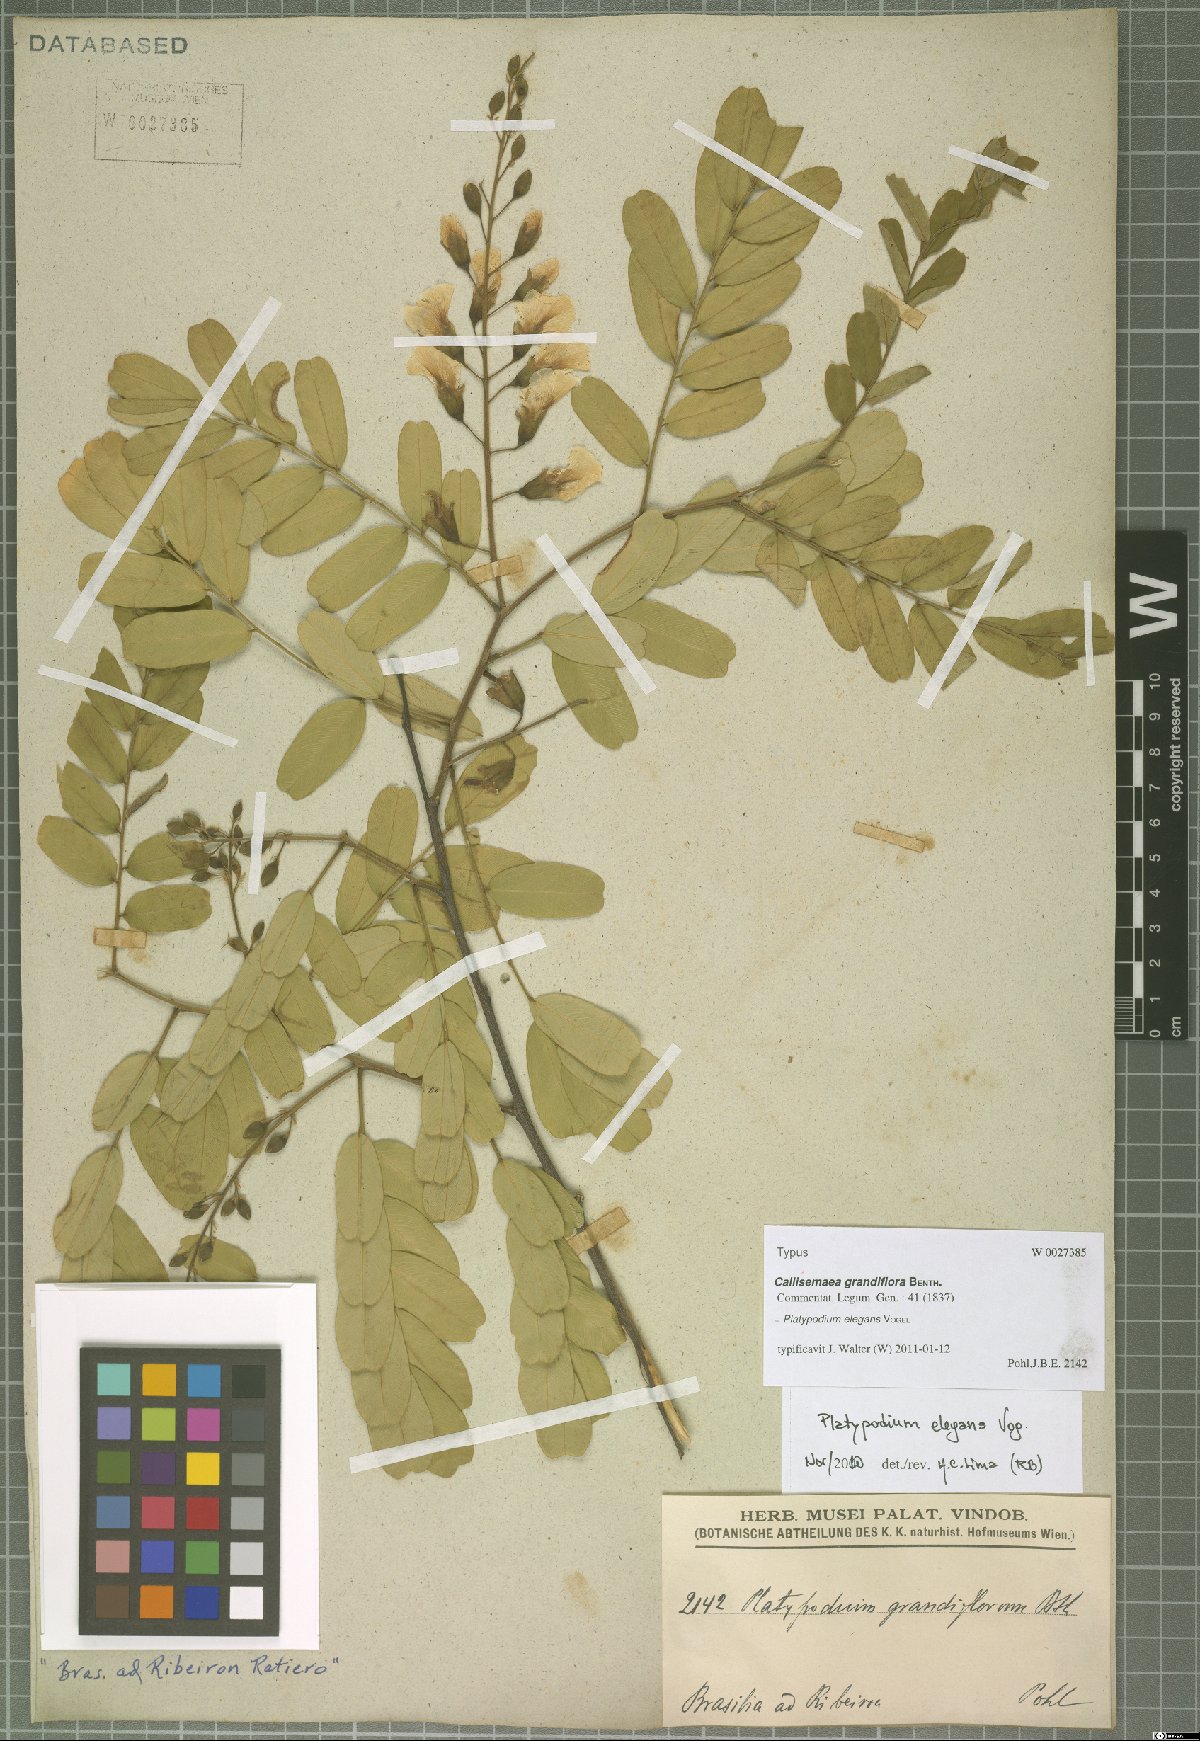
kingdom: Plantae
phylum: Tracheophyta
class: Magnoliopsida
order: Fabales
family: Fabaceae
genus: Platypodium
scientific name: Platypodium elegans
